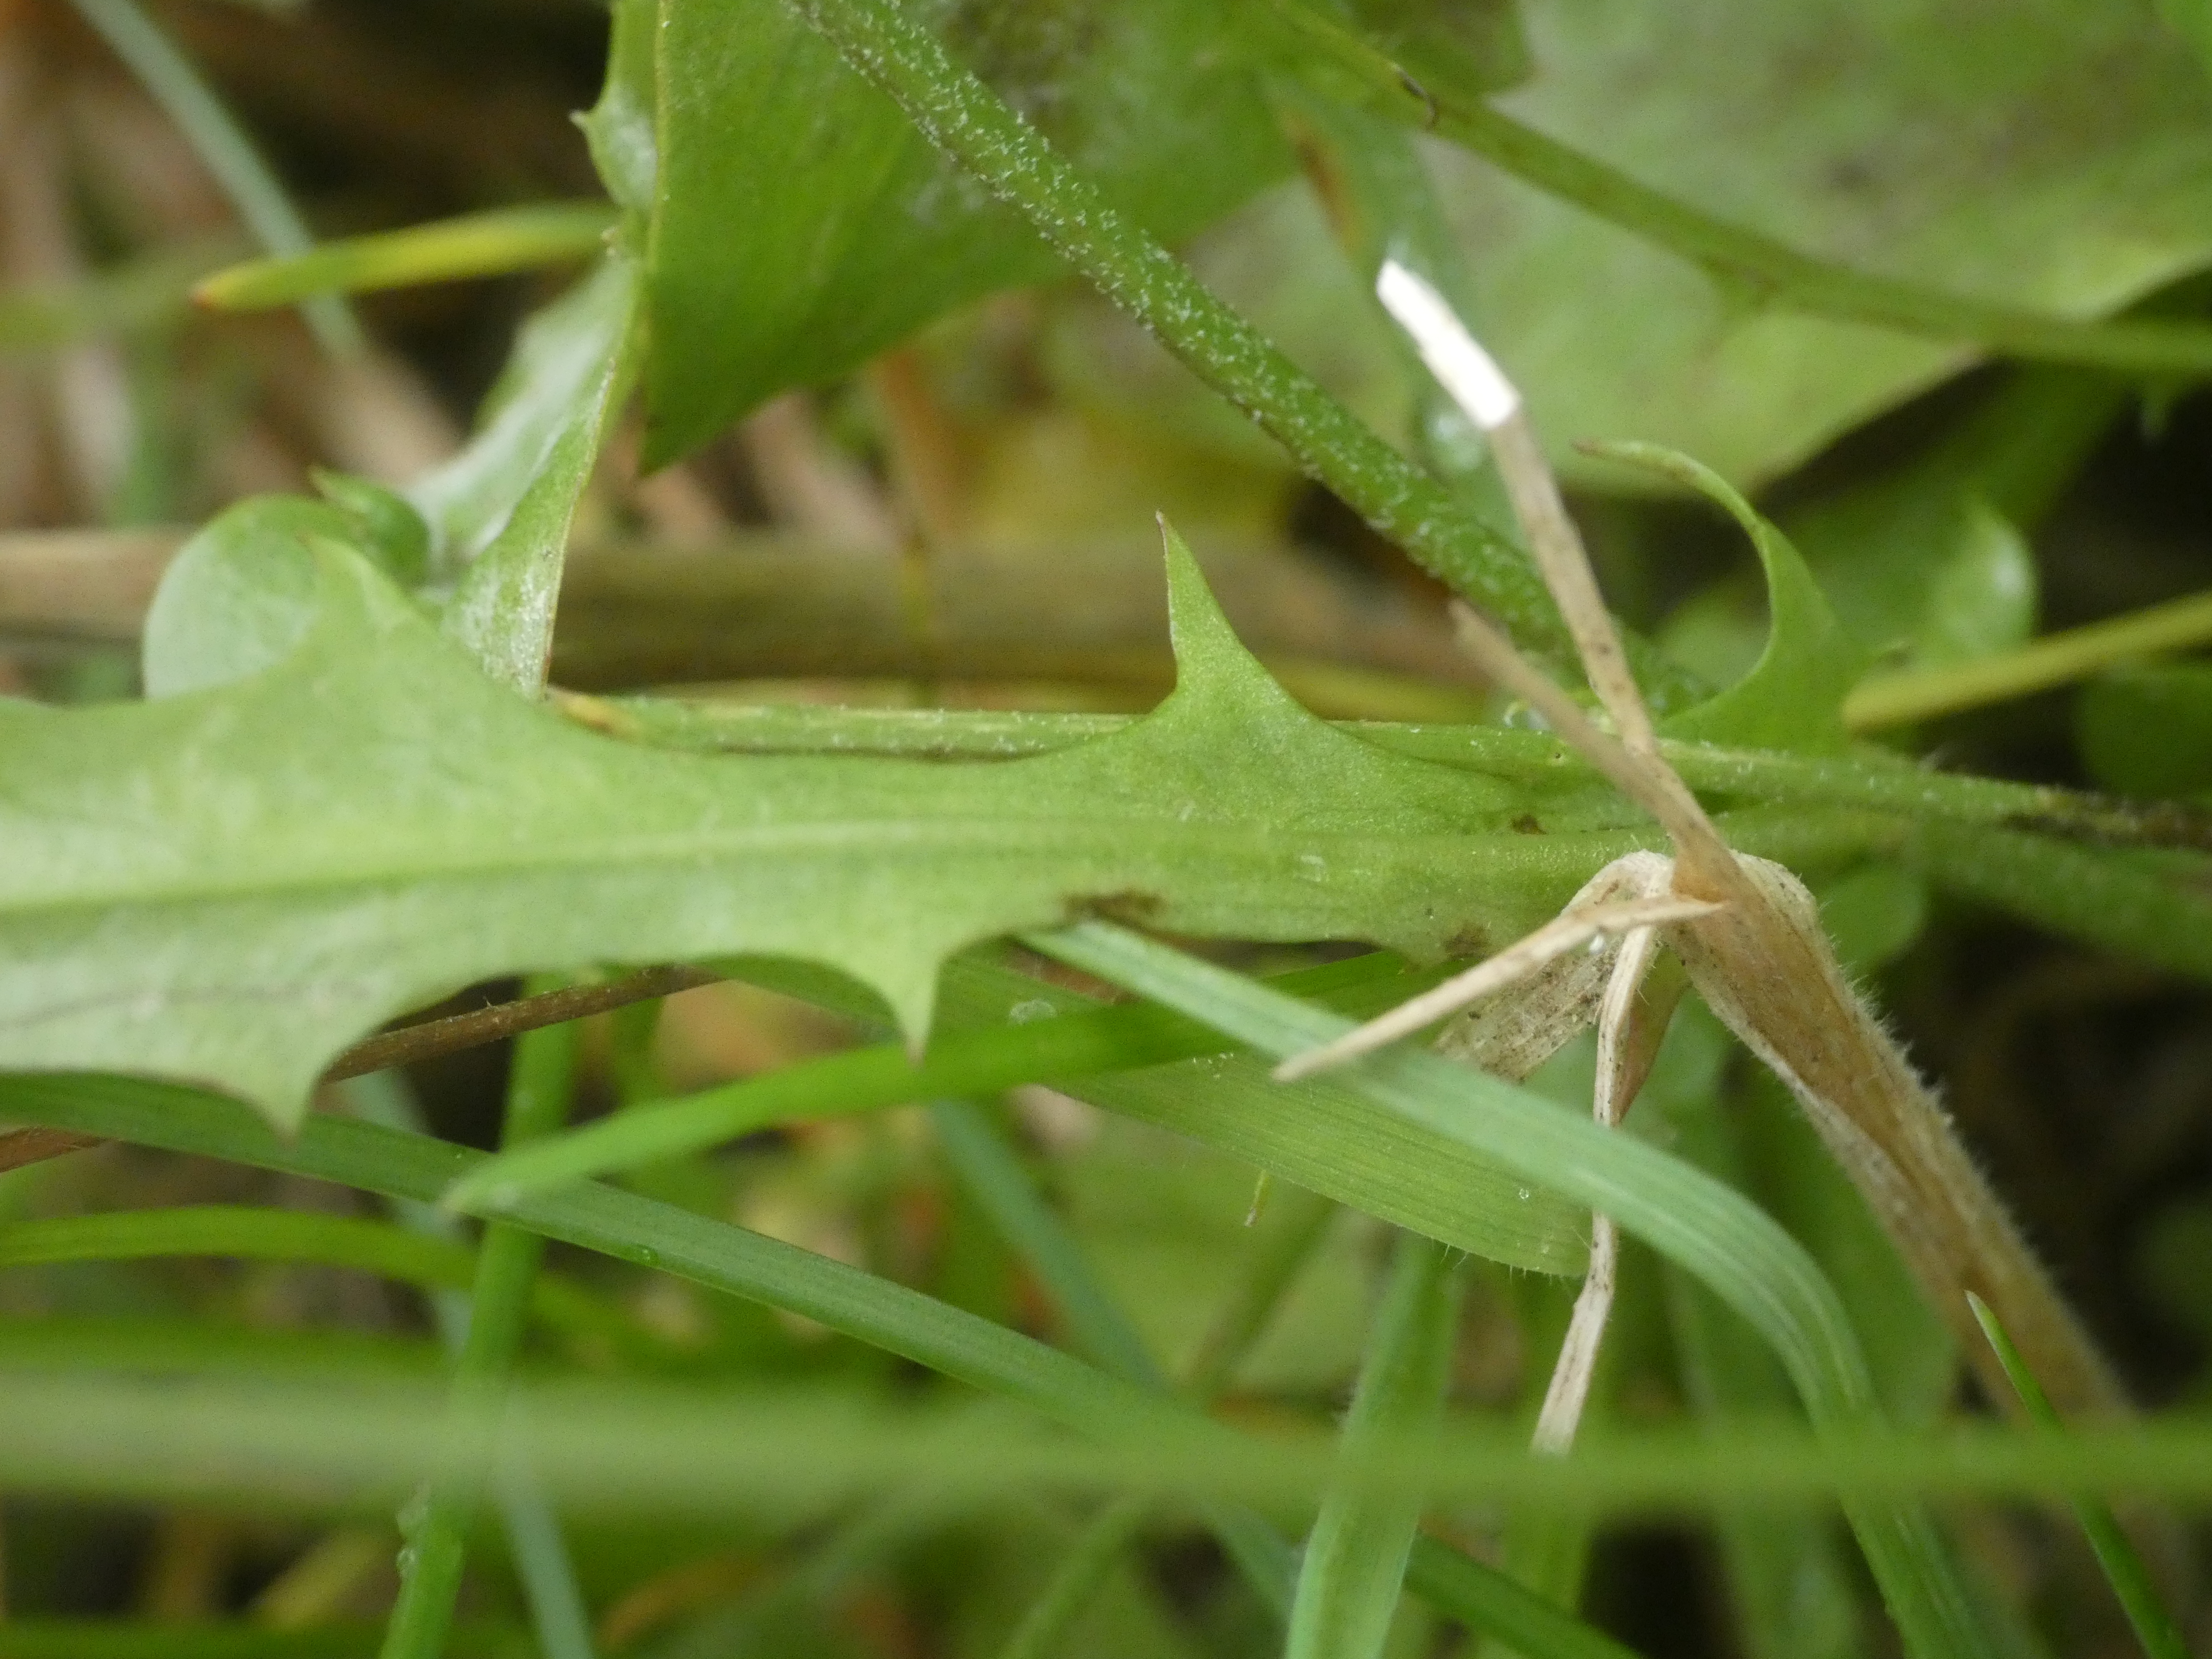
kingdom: Plantae
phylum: Tracheophyta
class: Magnoliopsida
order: Asterales
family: Asteraceae
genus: Lapsana
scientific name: Lapsana communis
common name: Haremad
